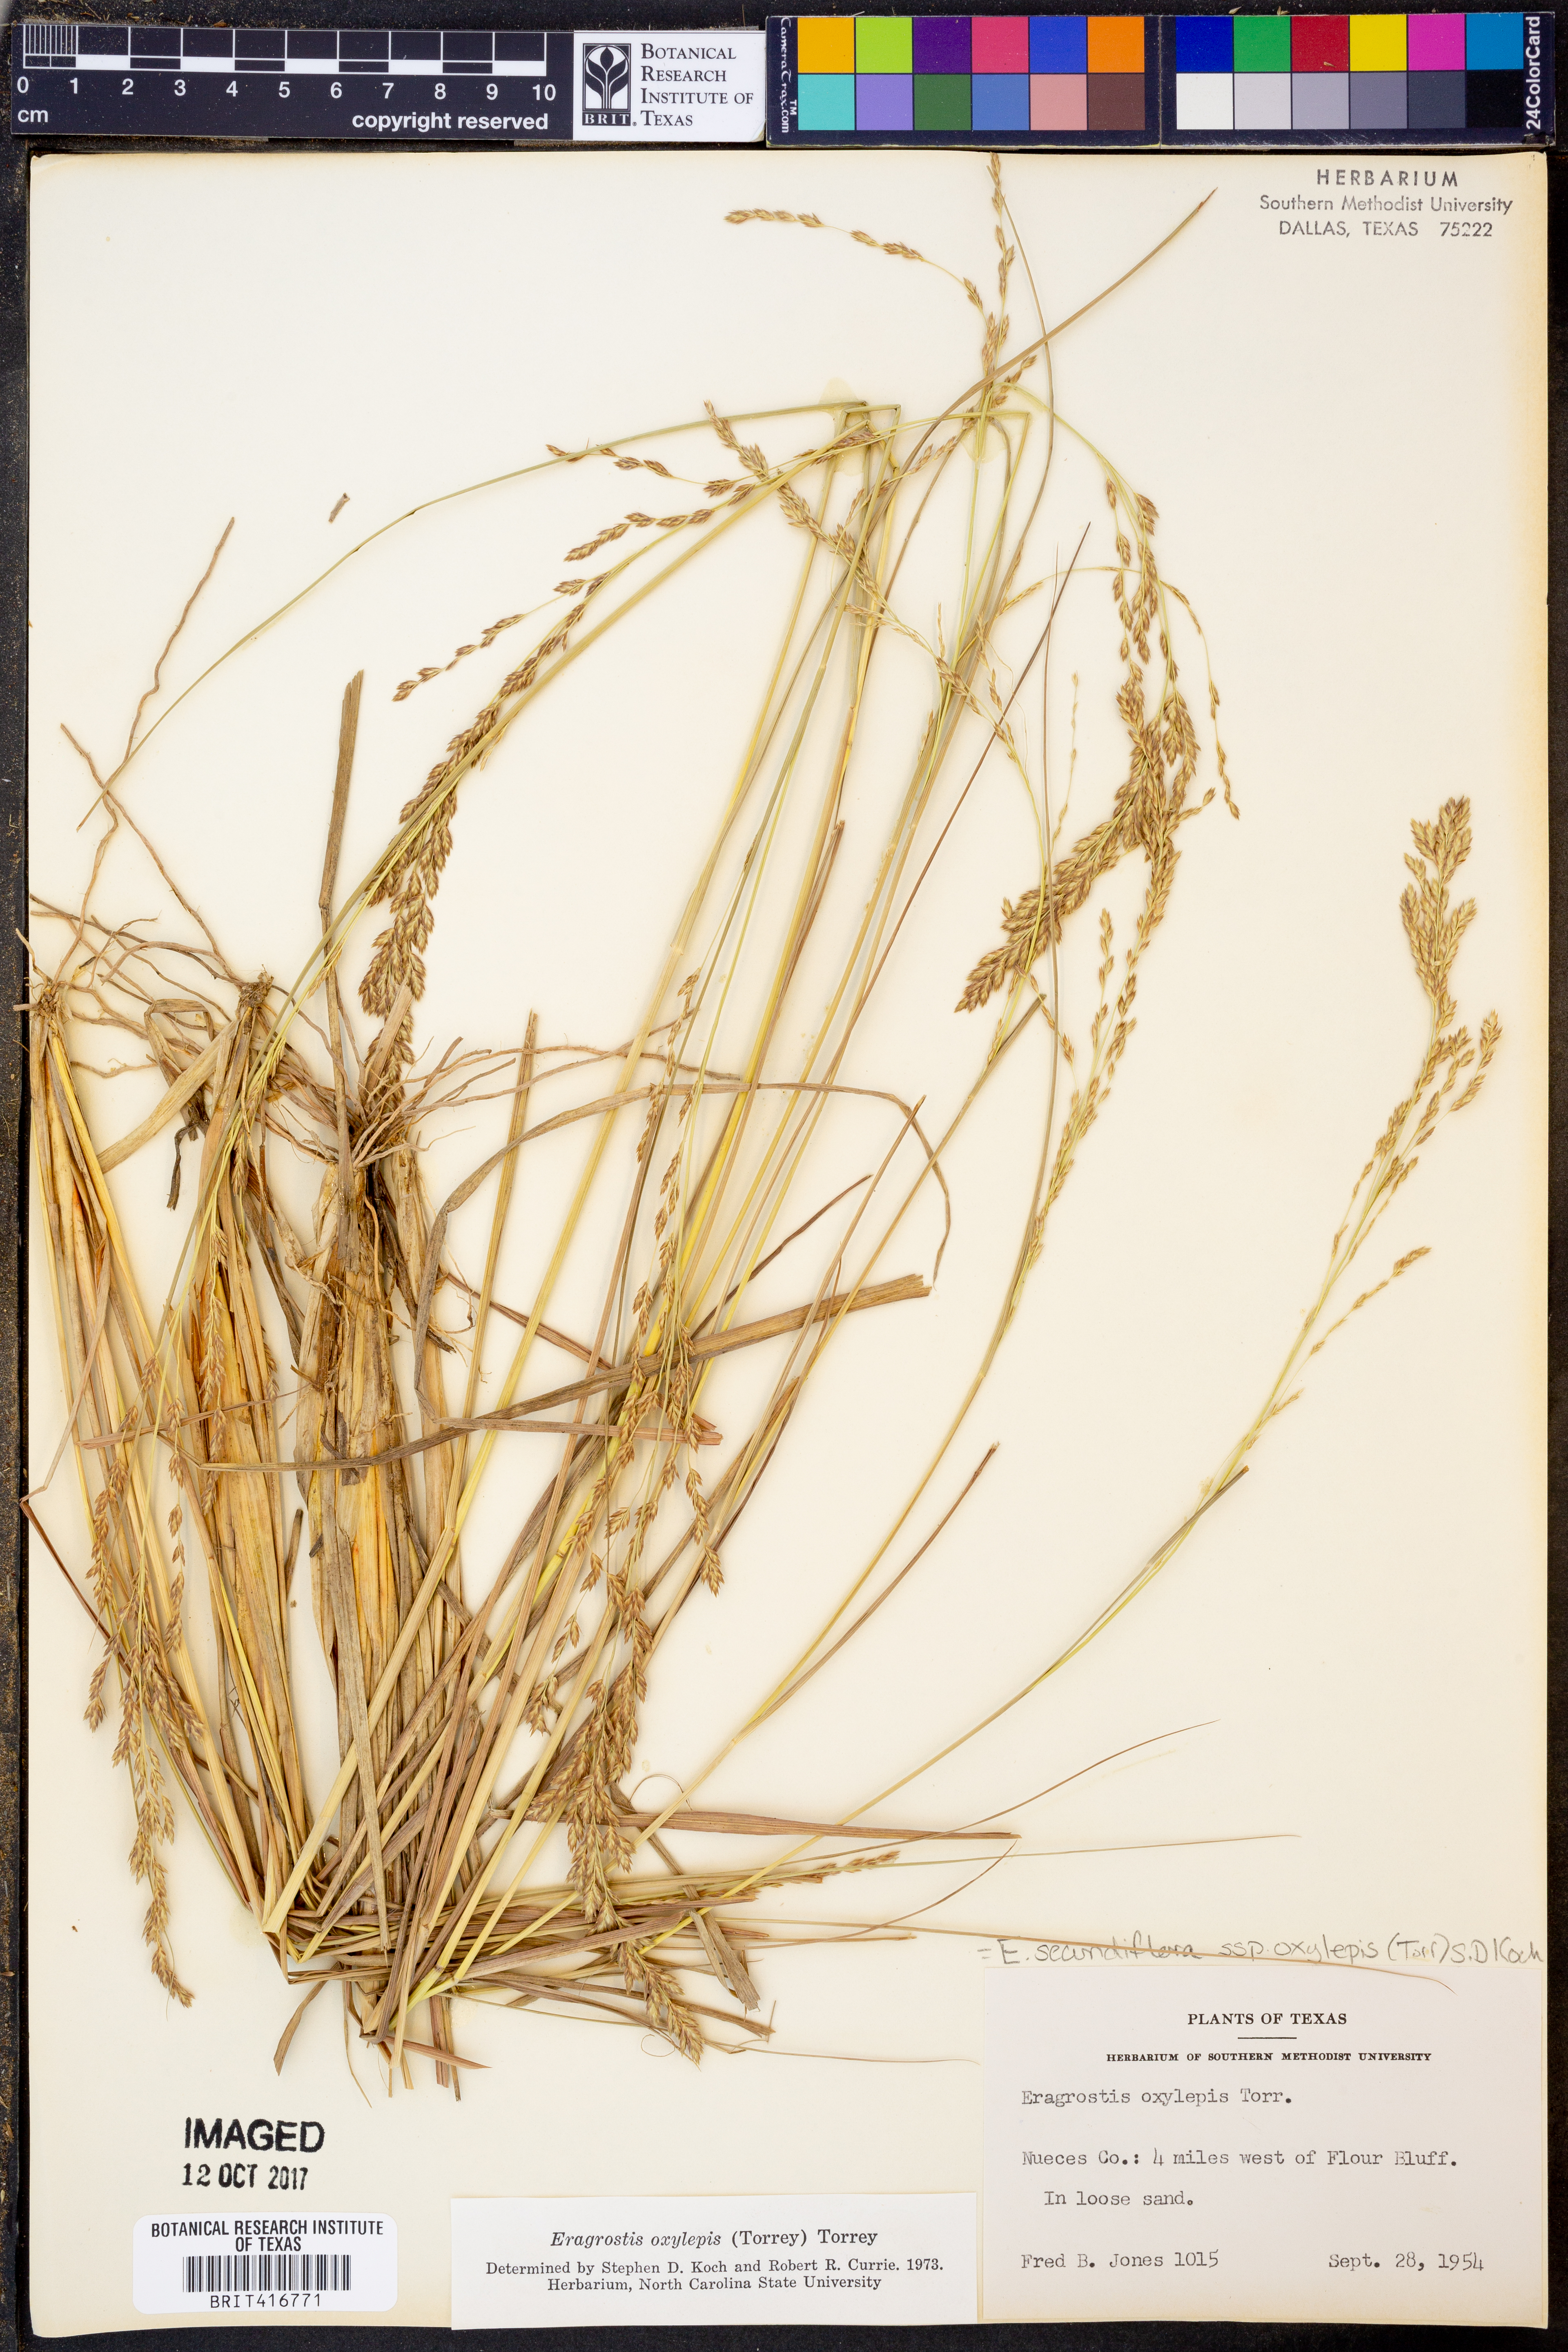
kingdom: Plantae
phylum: Tracheophyta
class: Liliopsida
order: Poales
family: Poaceae
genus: Eragrostis
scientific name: Eragrostis secundiflora
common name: Red love grass
